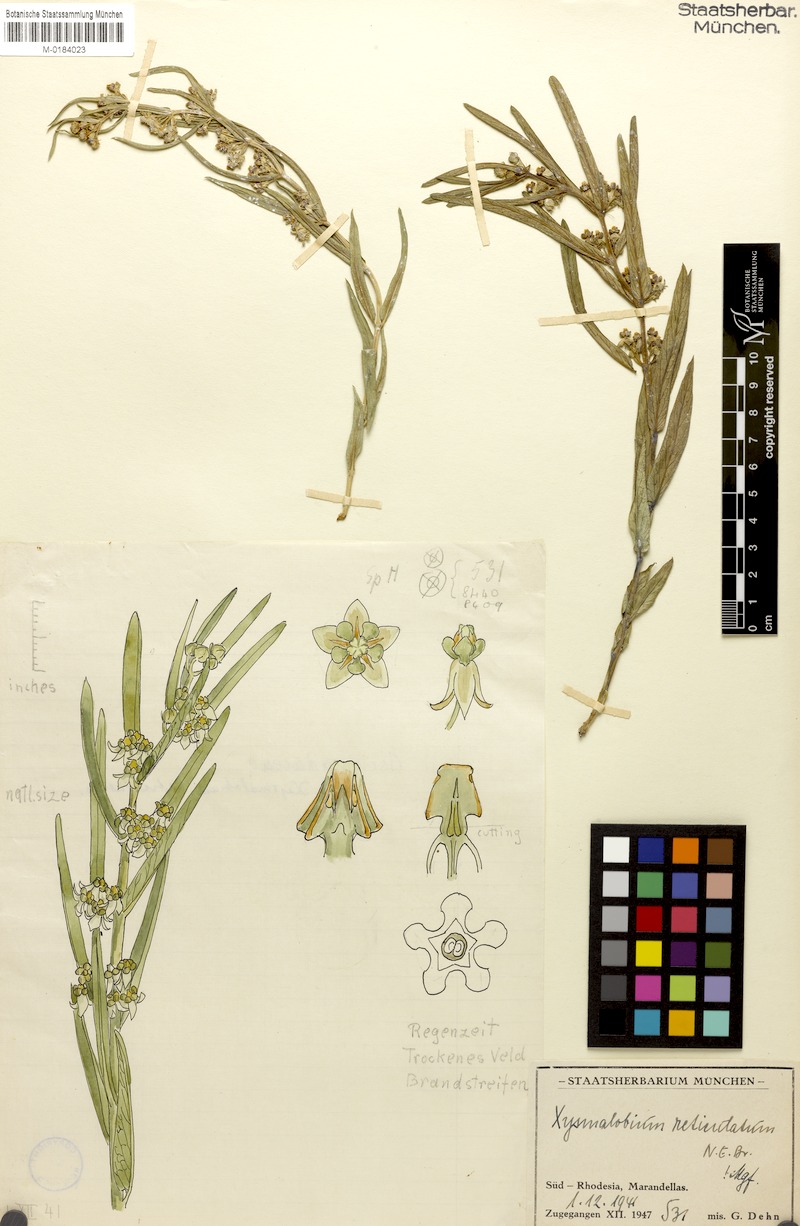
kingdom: Plantae
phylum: Tracheophyta
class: Magnoliopsida
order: Gentianales
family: Apocynaceae
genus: Xysmalobium
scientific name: Xysmalobium heudelotianum
